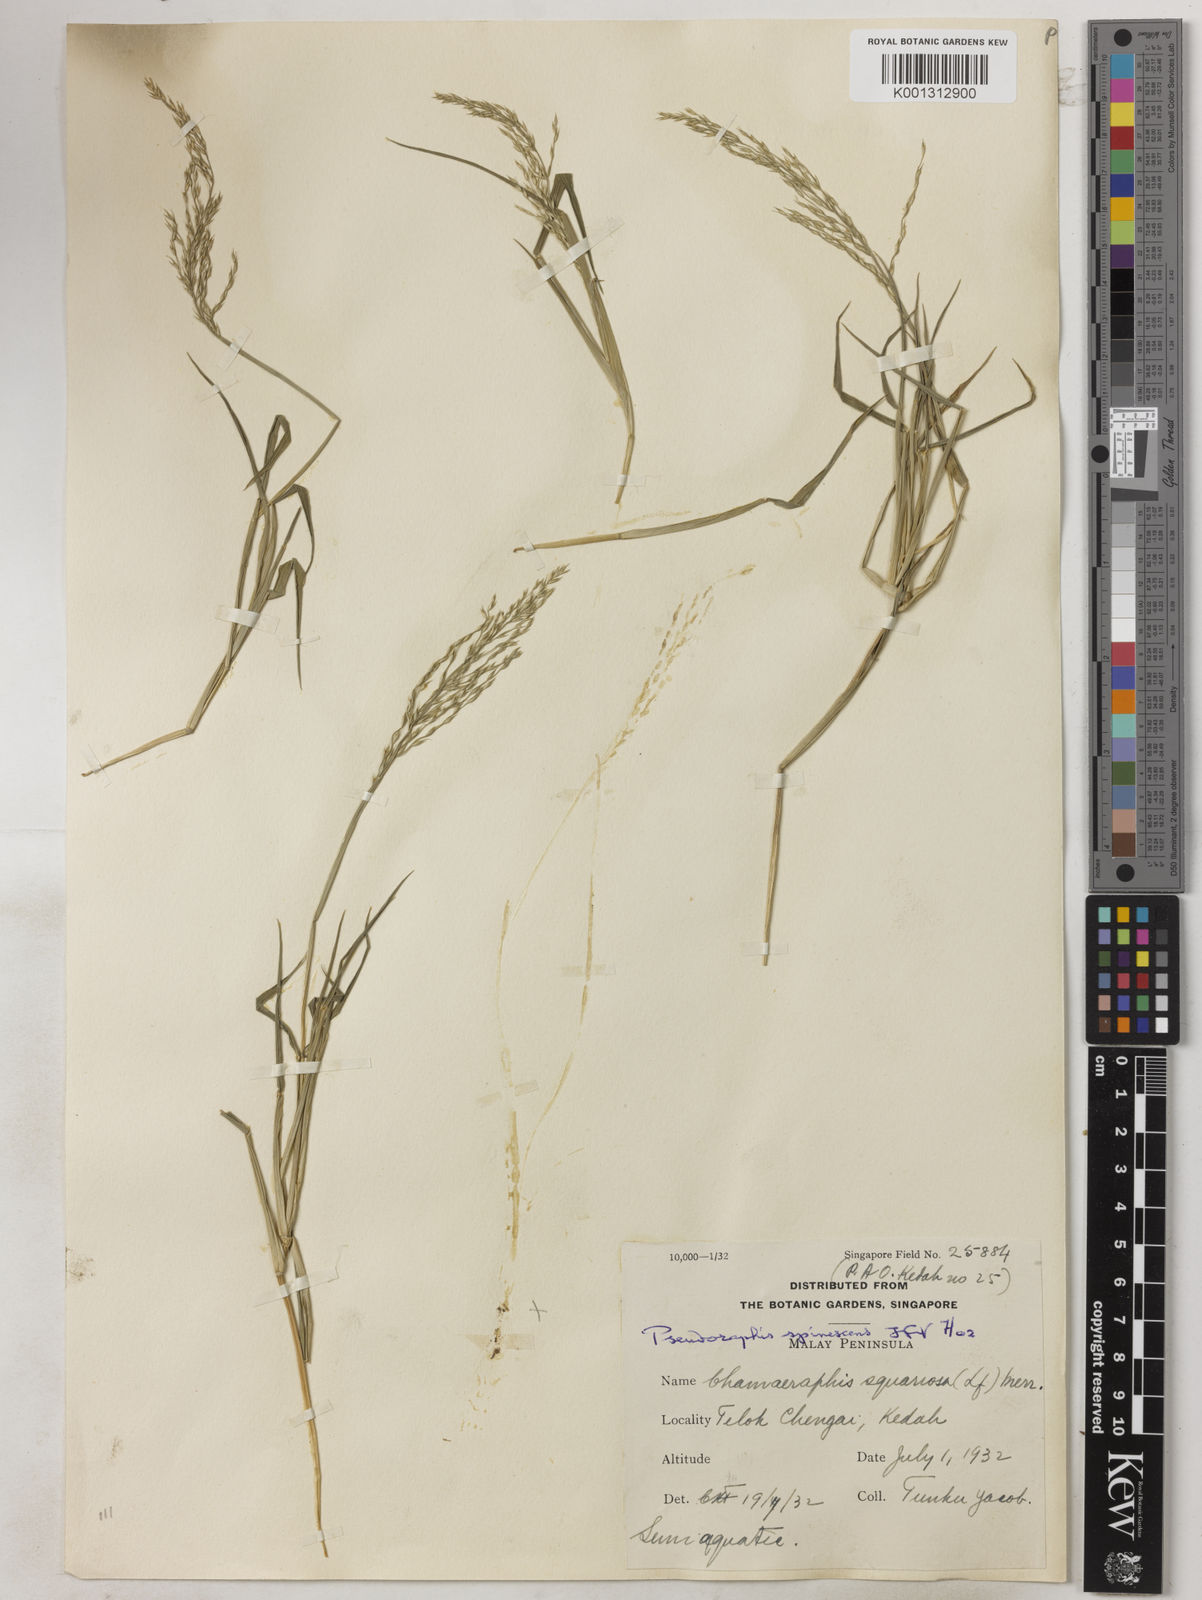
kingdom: Plantae
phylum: Tracheophyta
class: Liliopsida
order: Poales
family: Poaceae
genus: Pseudoraphis
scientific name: Pseudoraphis spinescens
